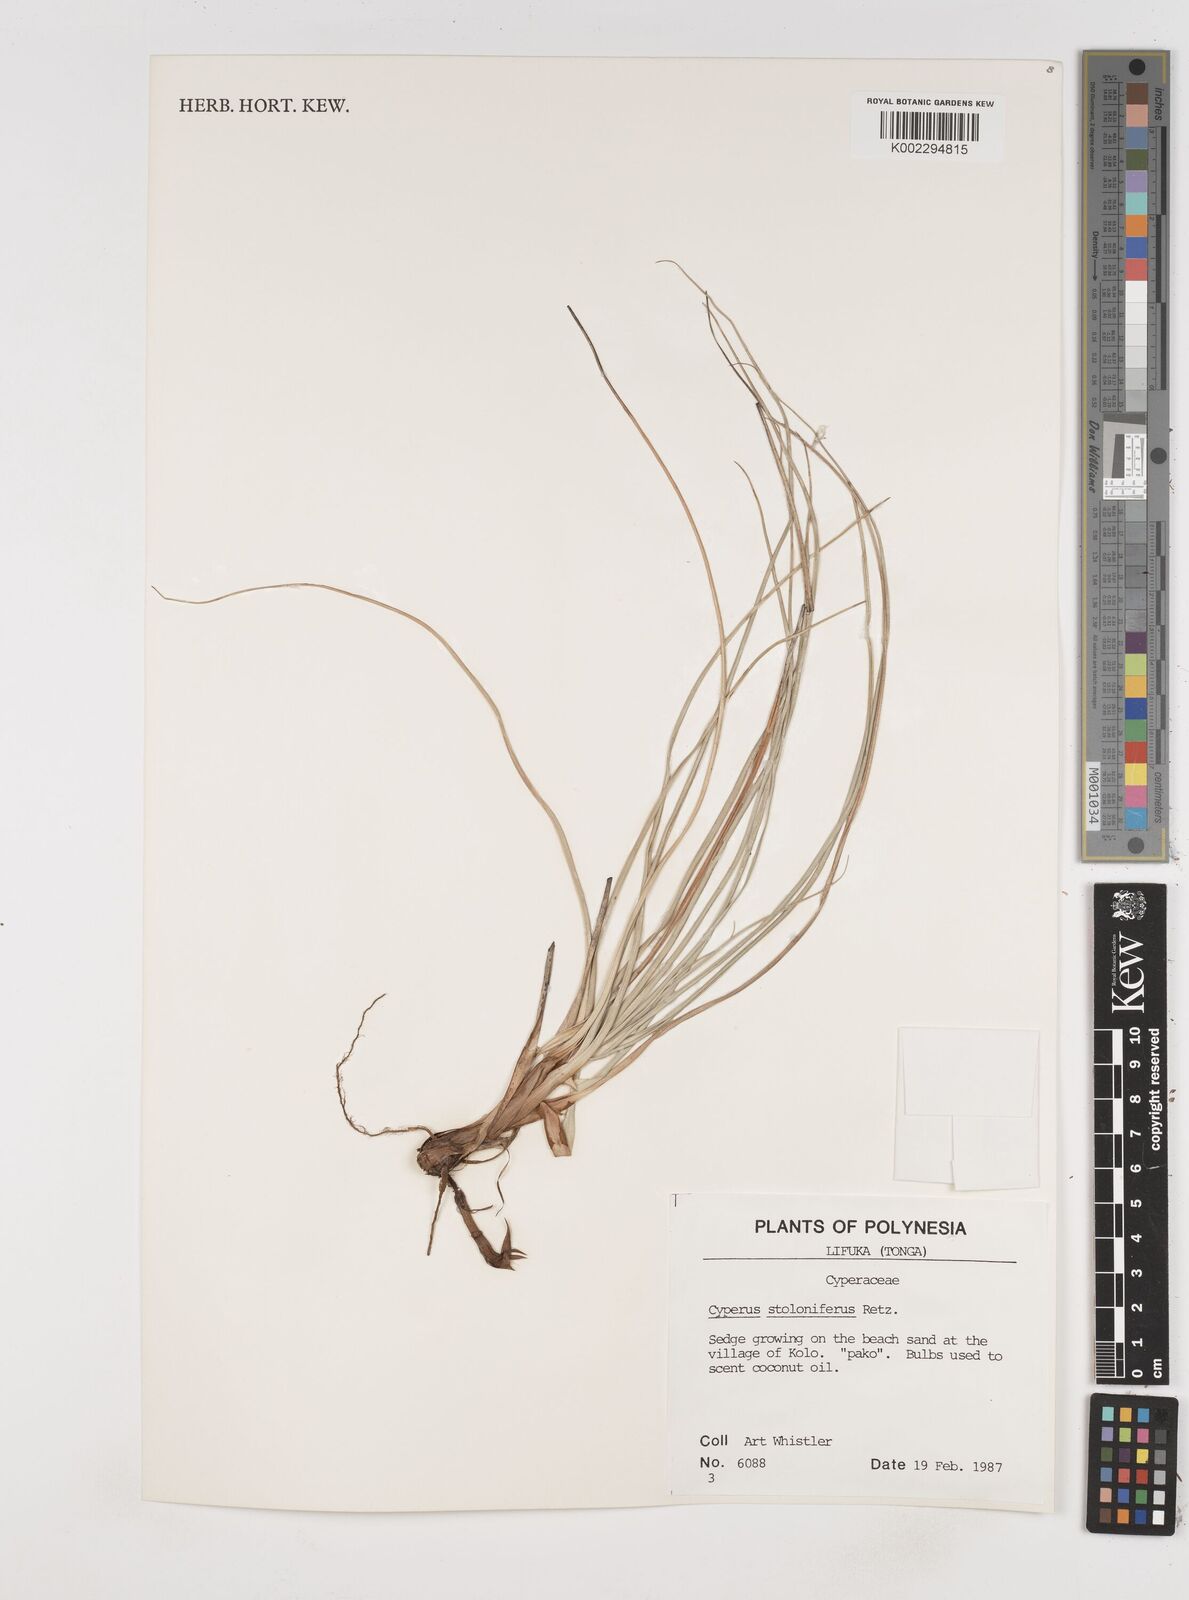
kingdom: Plantae
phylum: Tracheophyta
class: Liliopsida
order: Poales
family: Cyperaceae
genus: Cyperus
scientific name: Cyperus stolonifer
